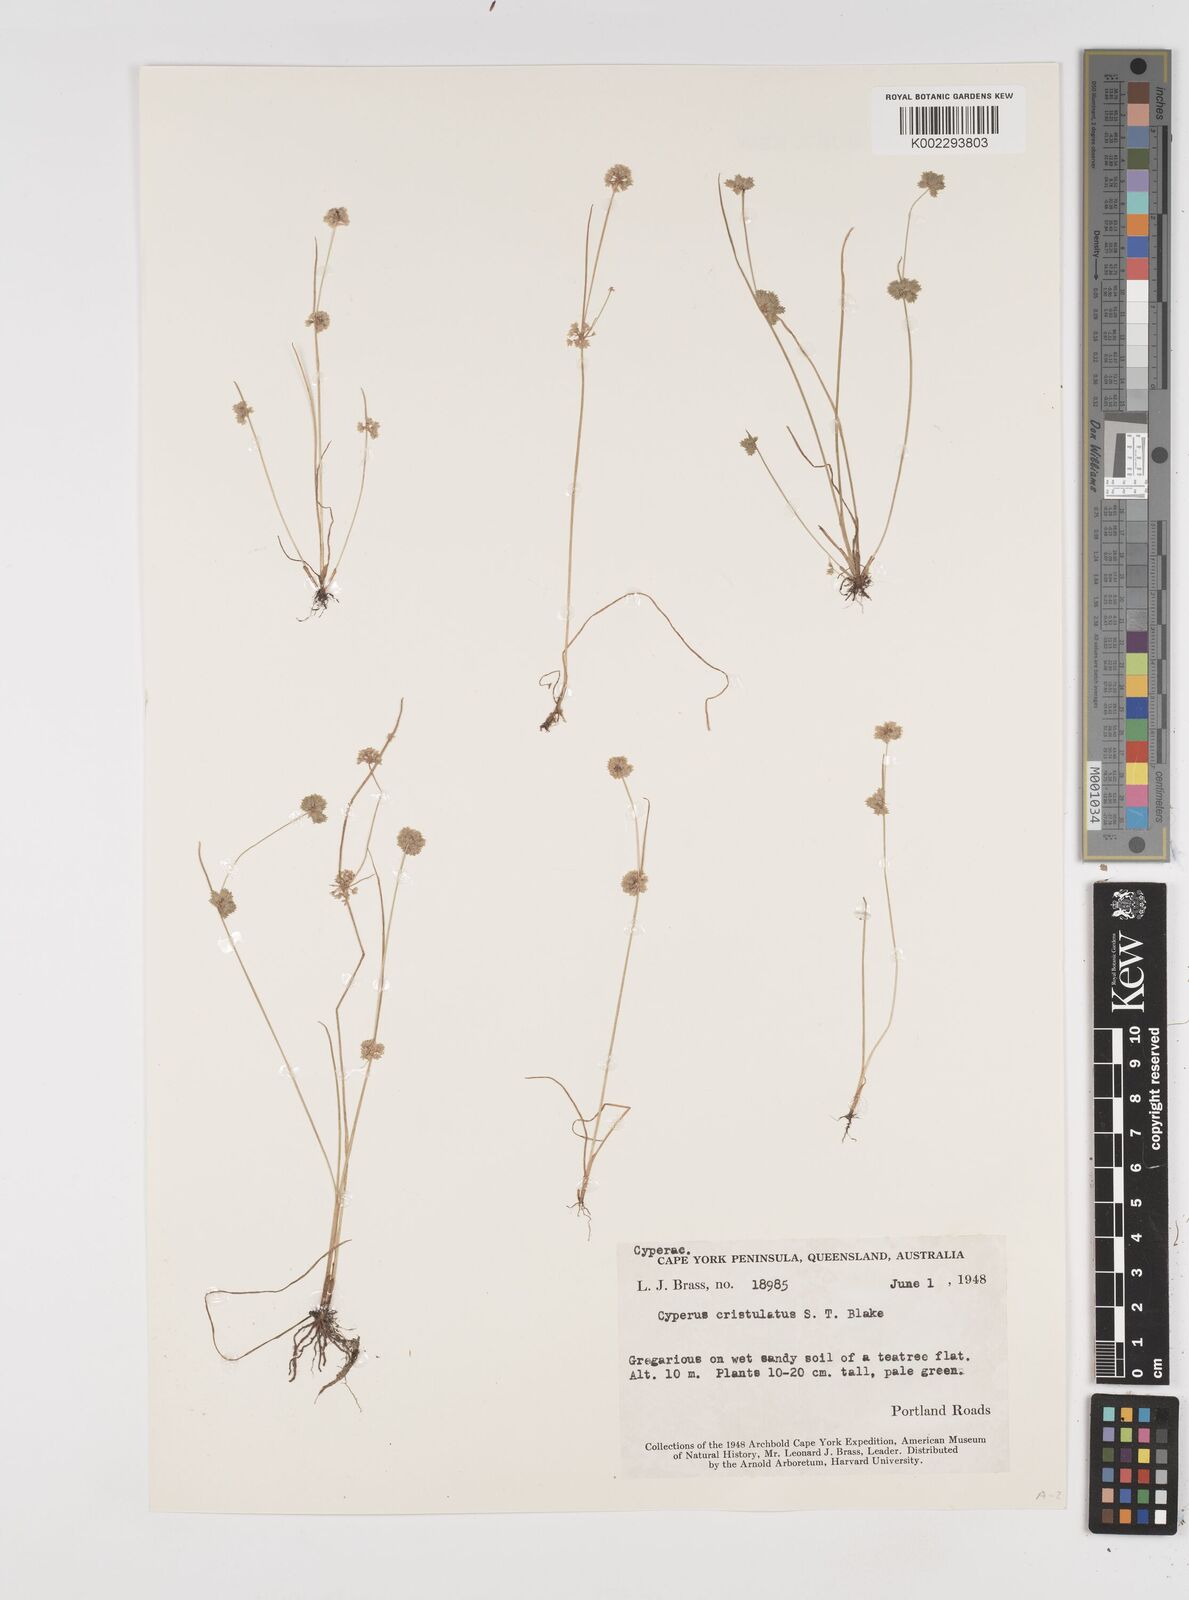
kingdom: Plantae
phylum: Tracheophyta
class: Liliopsida
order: Poales
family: Cyperaceae
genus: Cyperus
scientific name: Cyperus cristulatus
